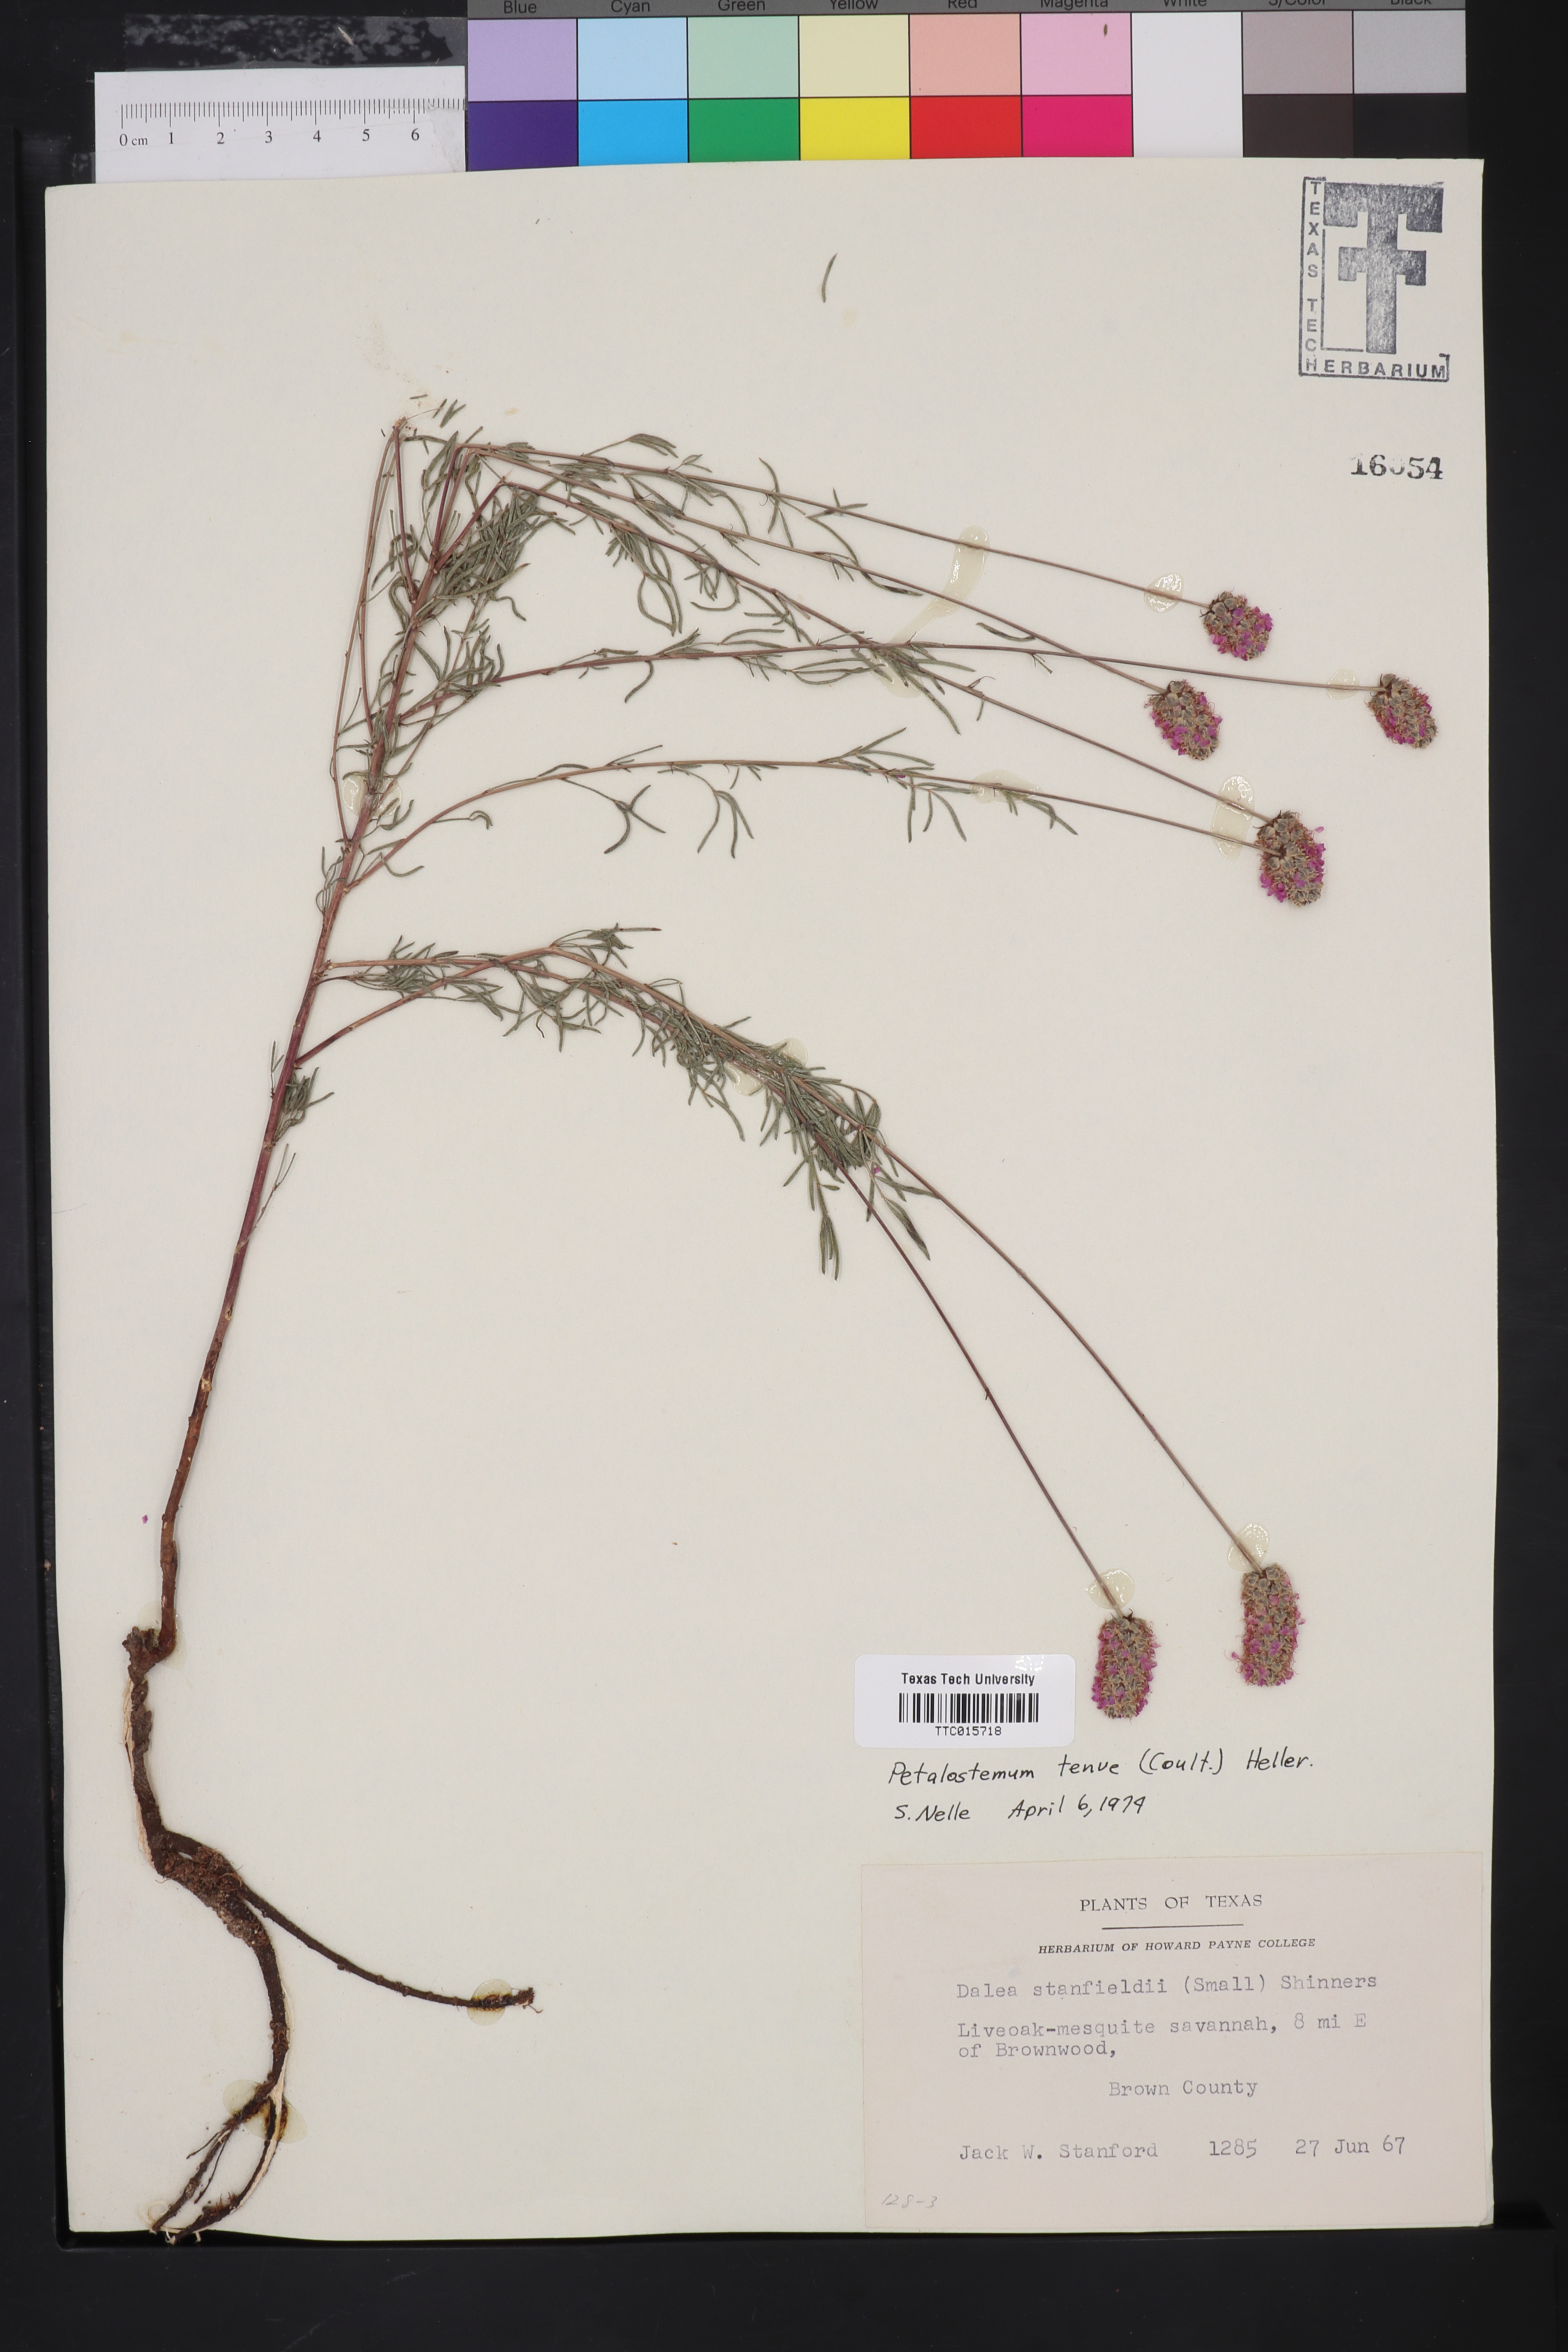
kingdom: Plantae
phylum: Tracheophyta
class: Magnoliopsida
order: Fabales
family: Fabaceae
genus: Petalostemum
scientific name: Petalostemum
